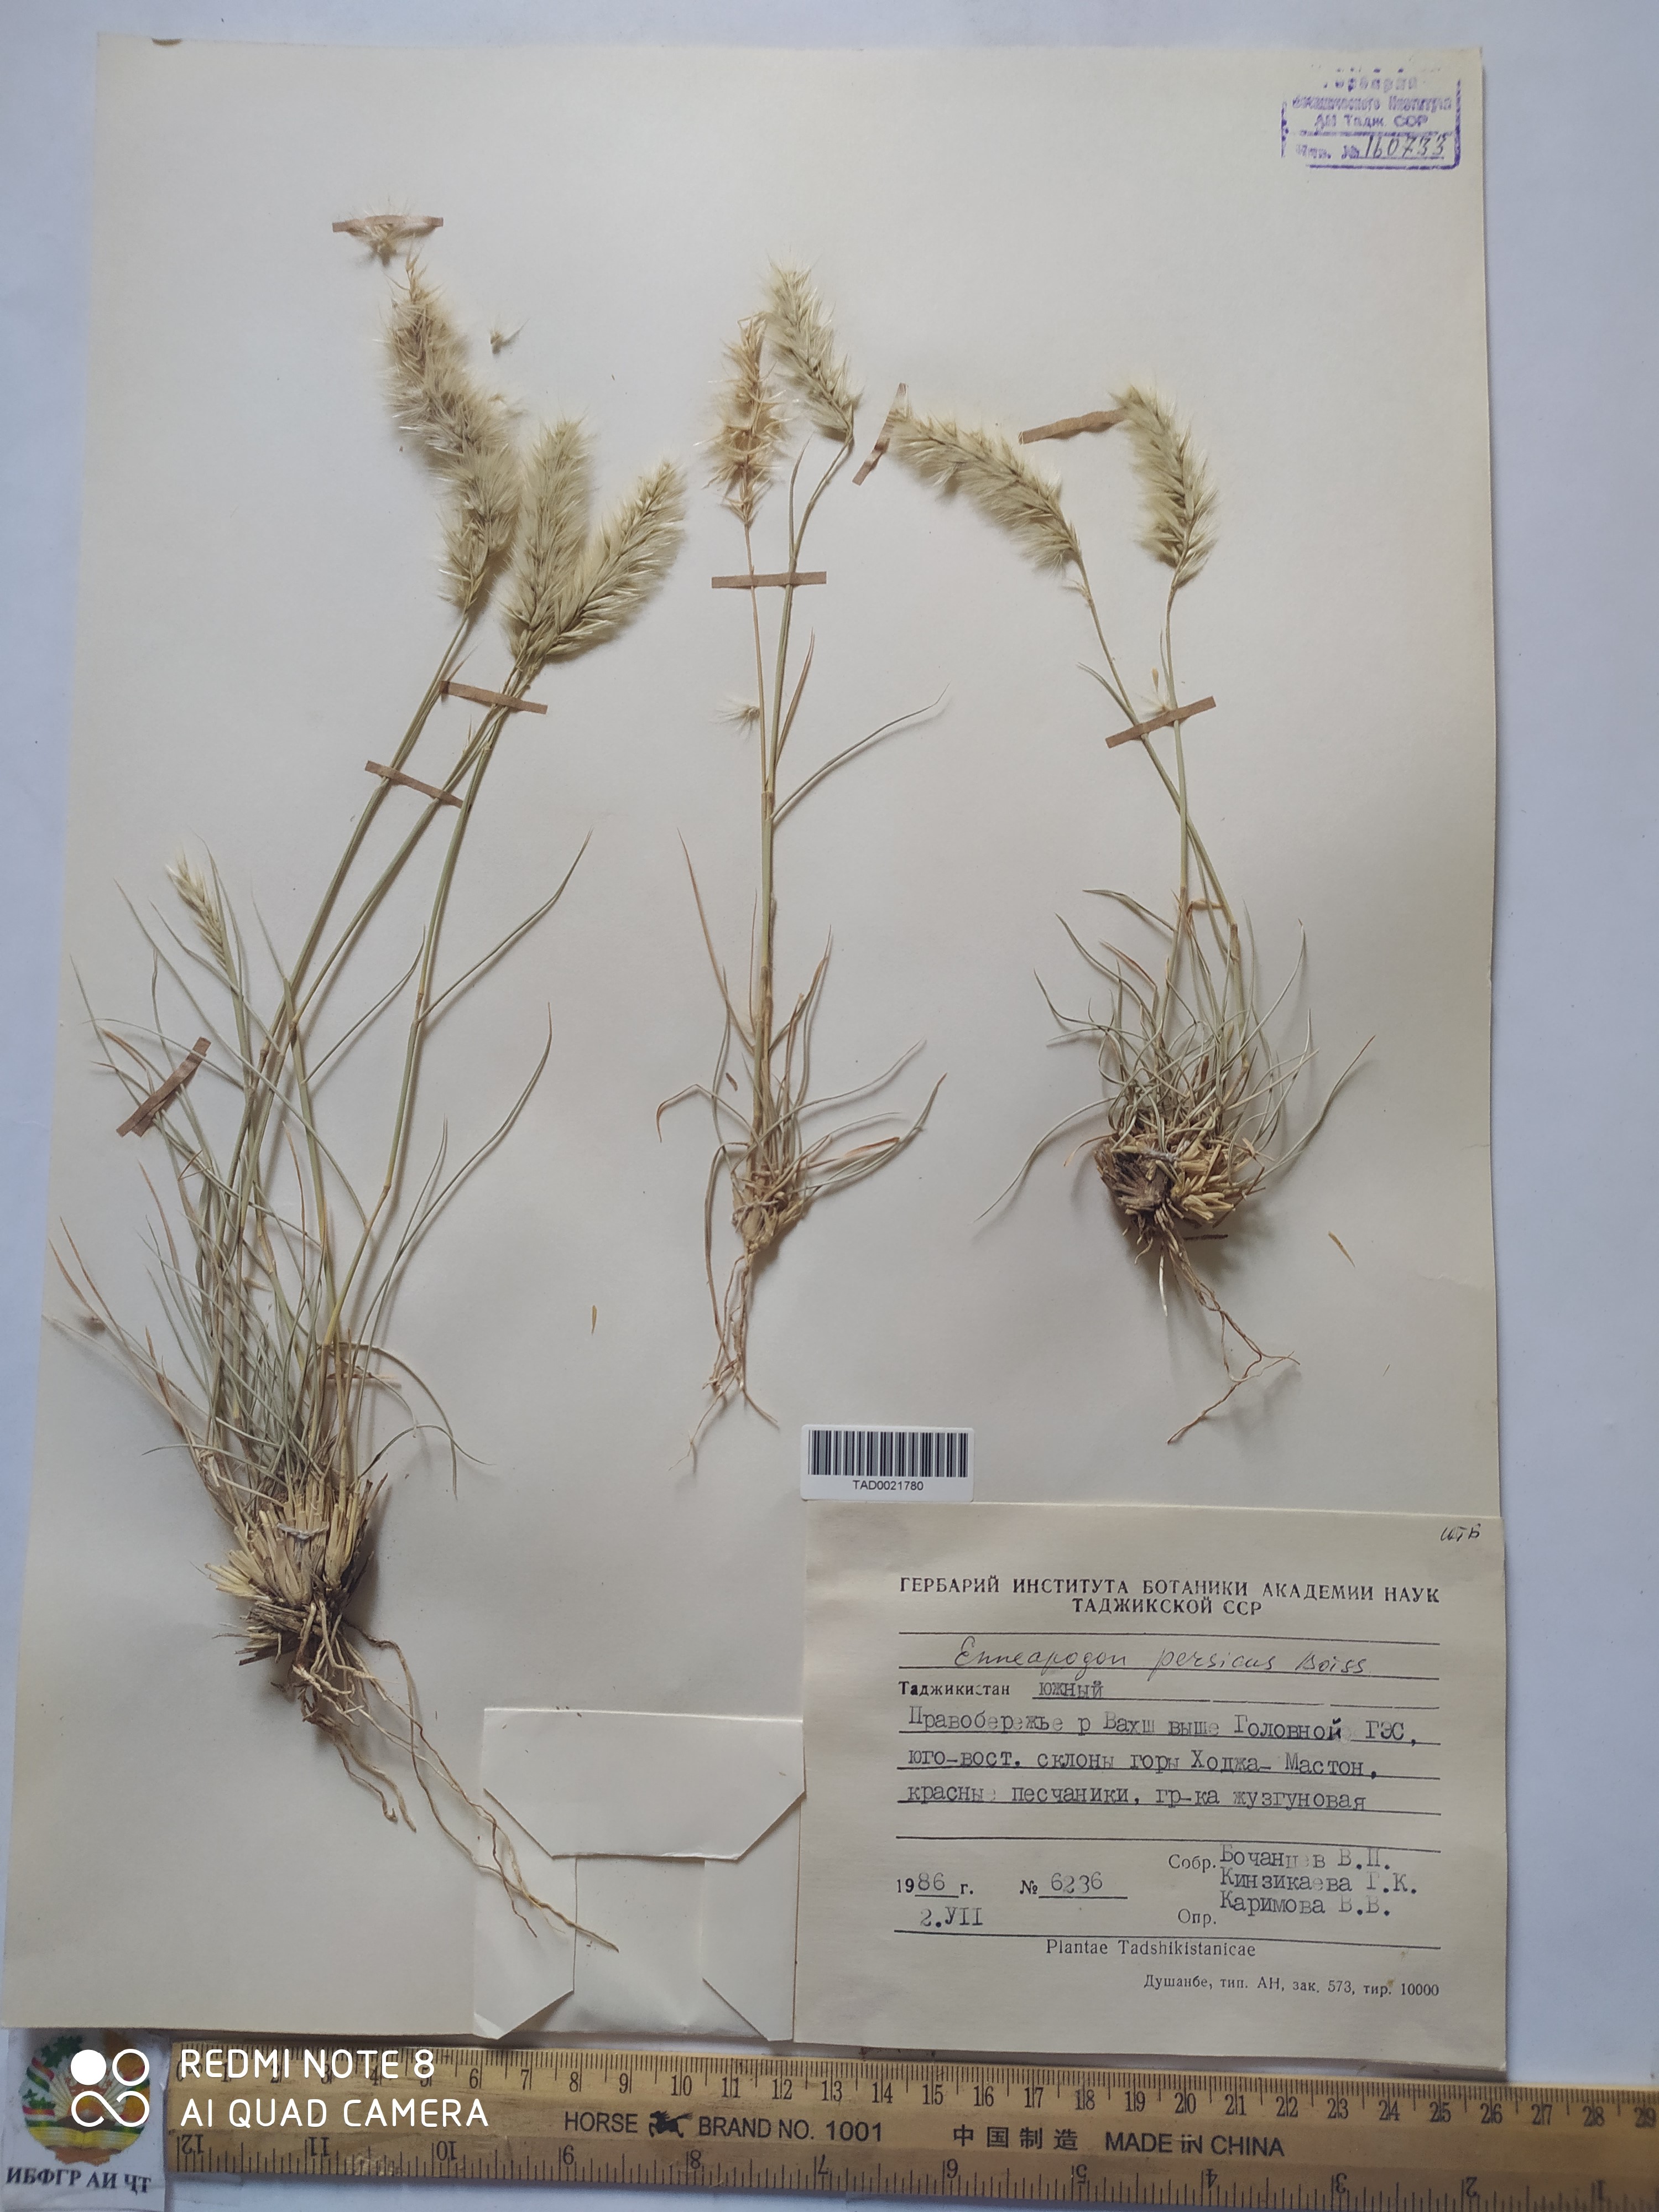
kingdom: Plantae
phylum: Tracheophyta
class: Liliopsida
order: Poales
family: Poaceae
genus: Enneapogon
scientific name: Enneapogon persicus
